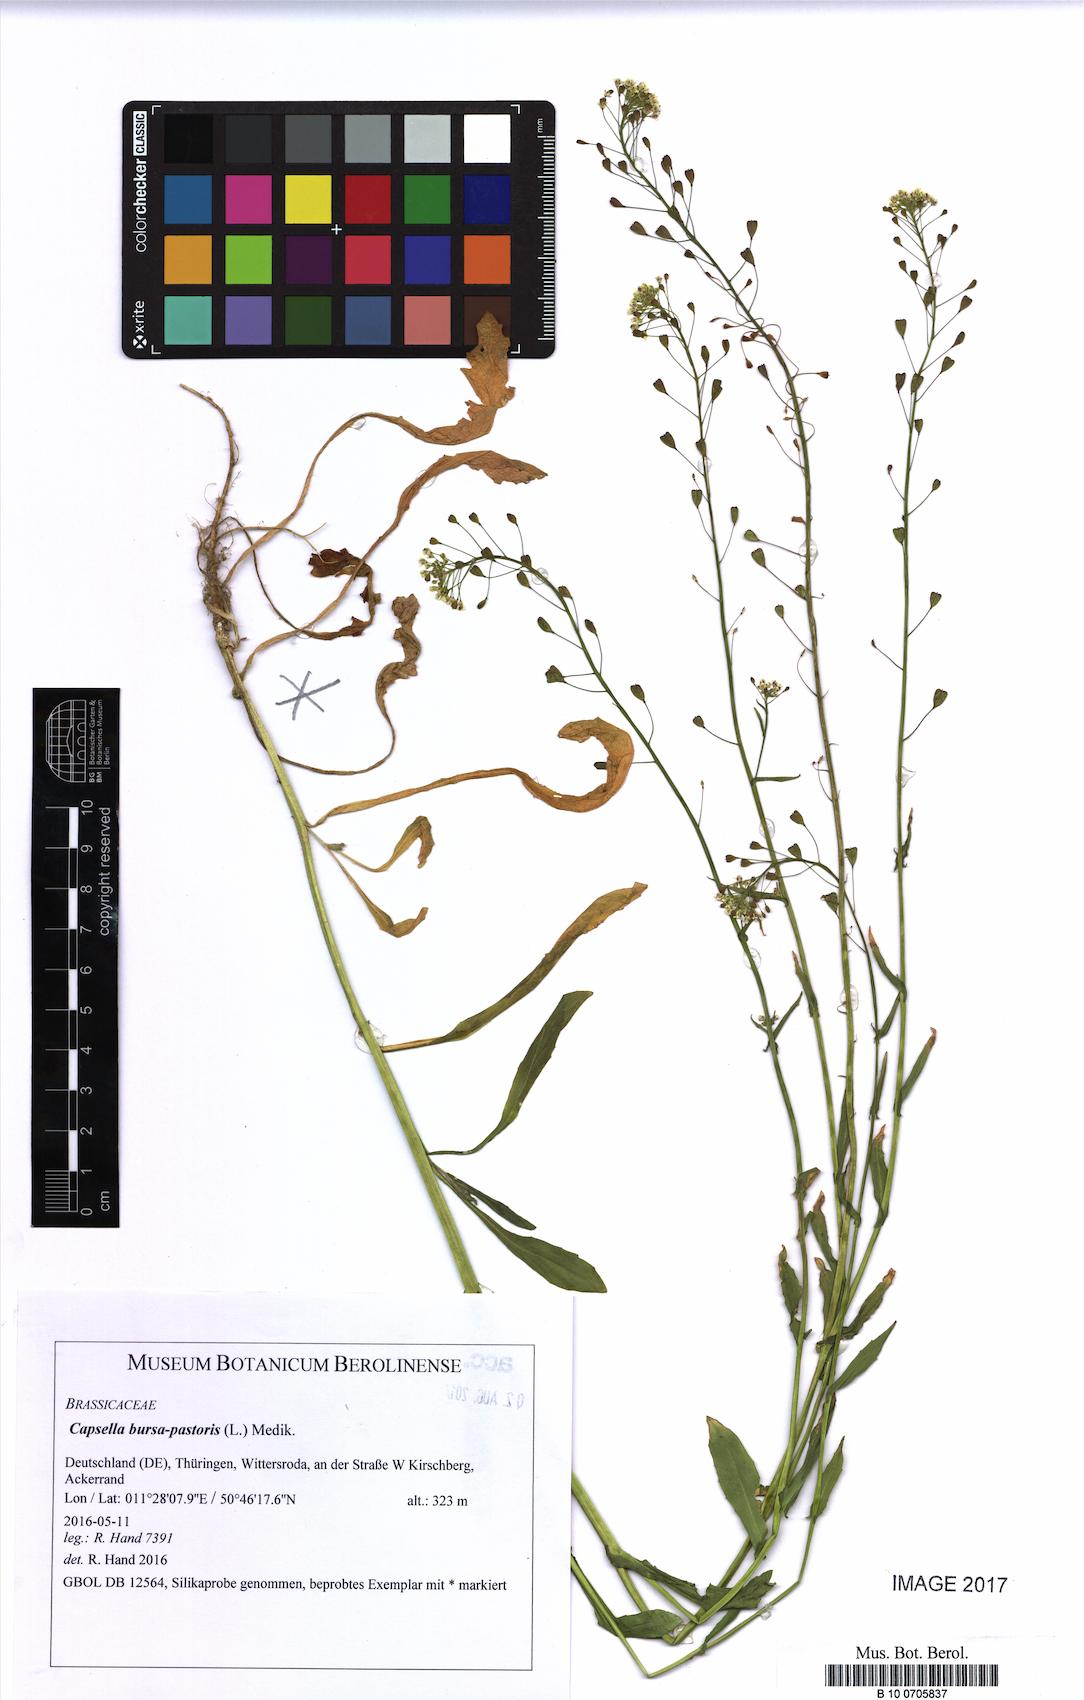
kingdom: Plantae
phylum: Tracheophyta
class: Magnoliopsida
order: Brassicales
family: Brassicaceae
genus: Capsella
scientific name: Capsella bursa-pastoris
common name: Shepherd's purse
